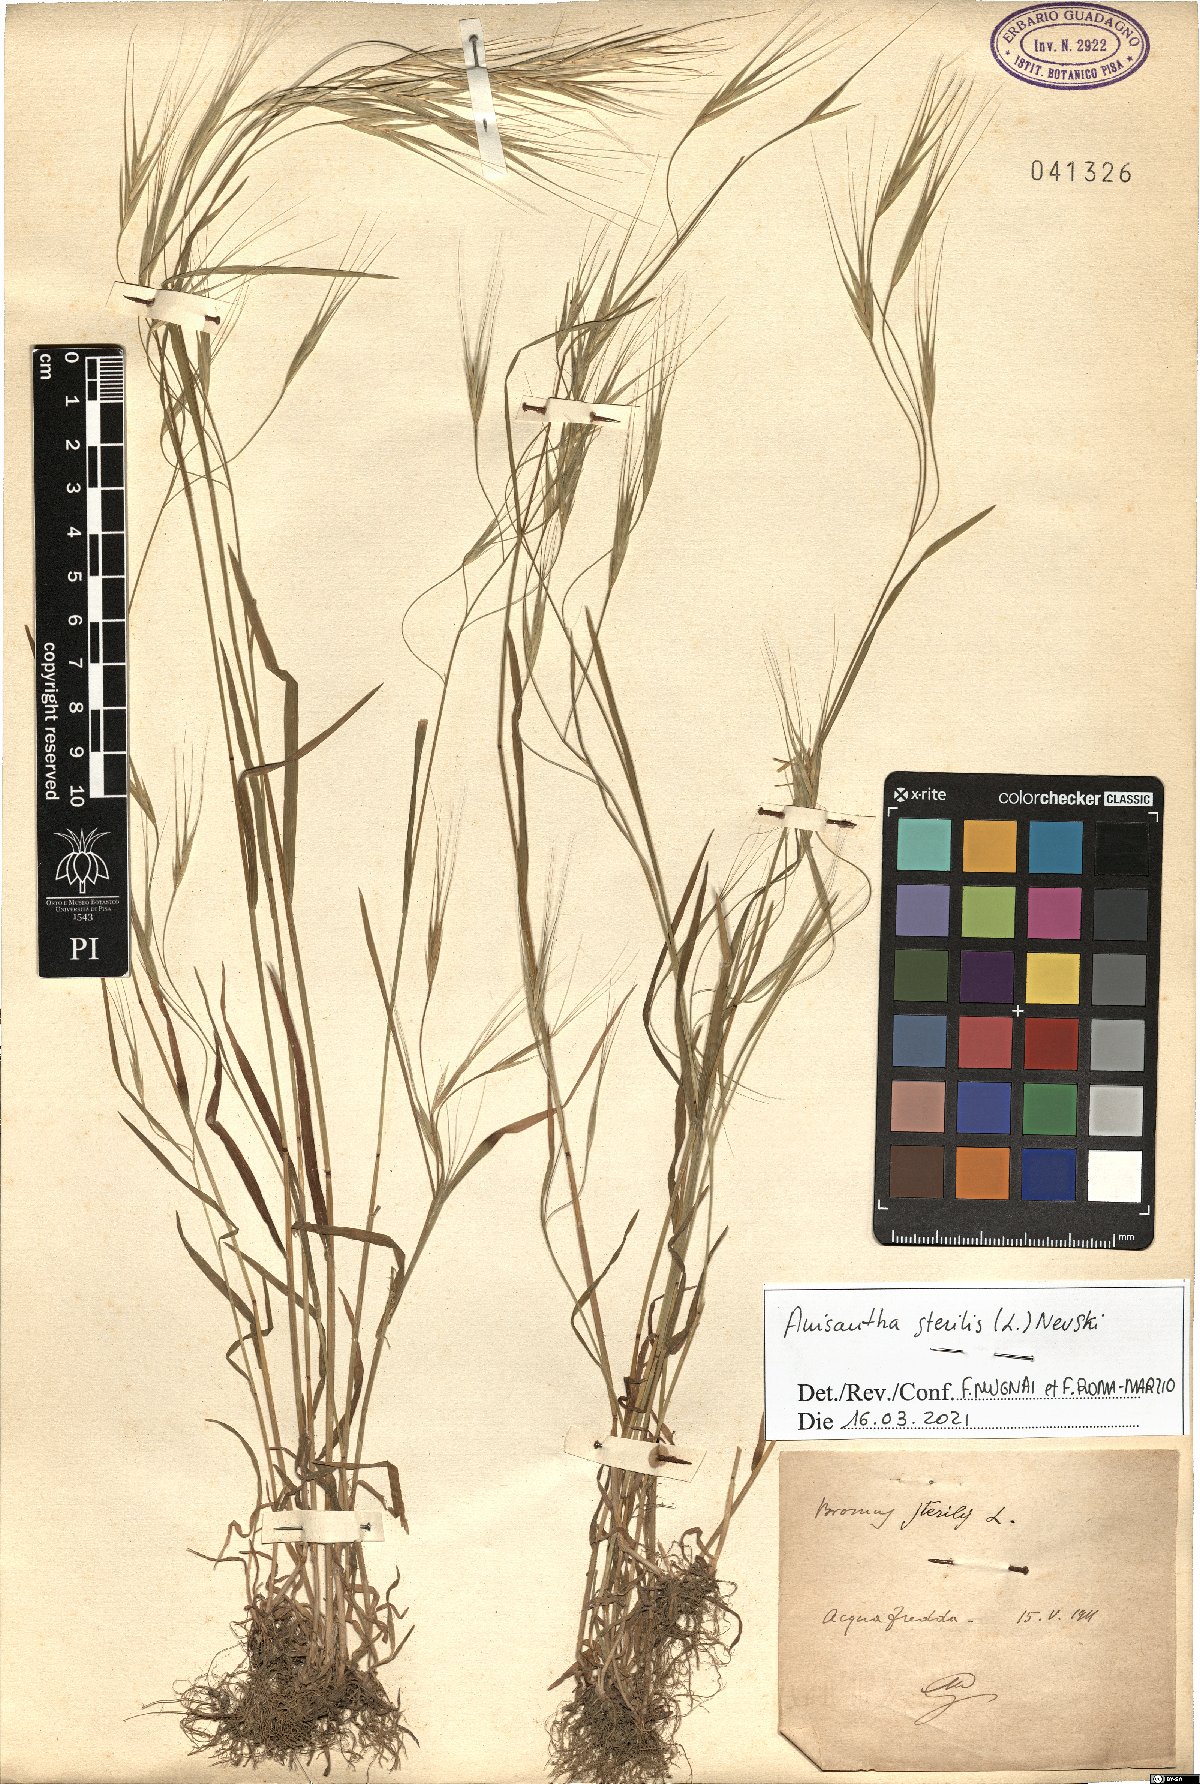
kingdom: Plantae
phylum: Tracheophyta
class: Liliopsida
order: Poales
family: Poaceae
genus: Bromus
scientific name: Bromus sterilis
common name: Poverty brome
